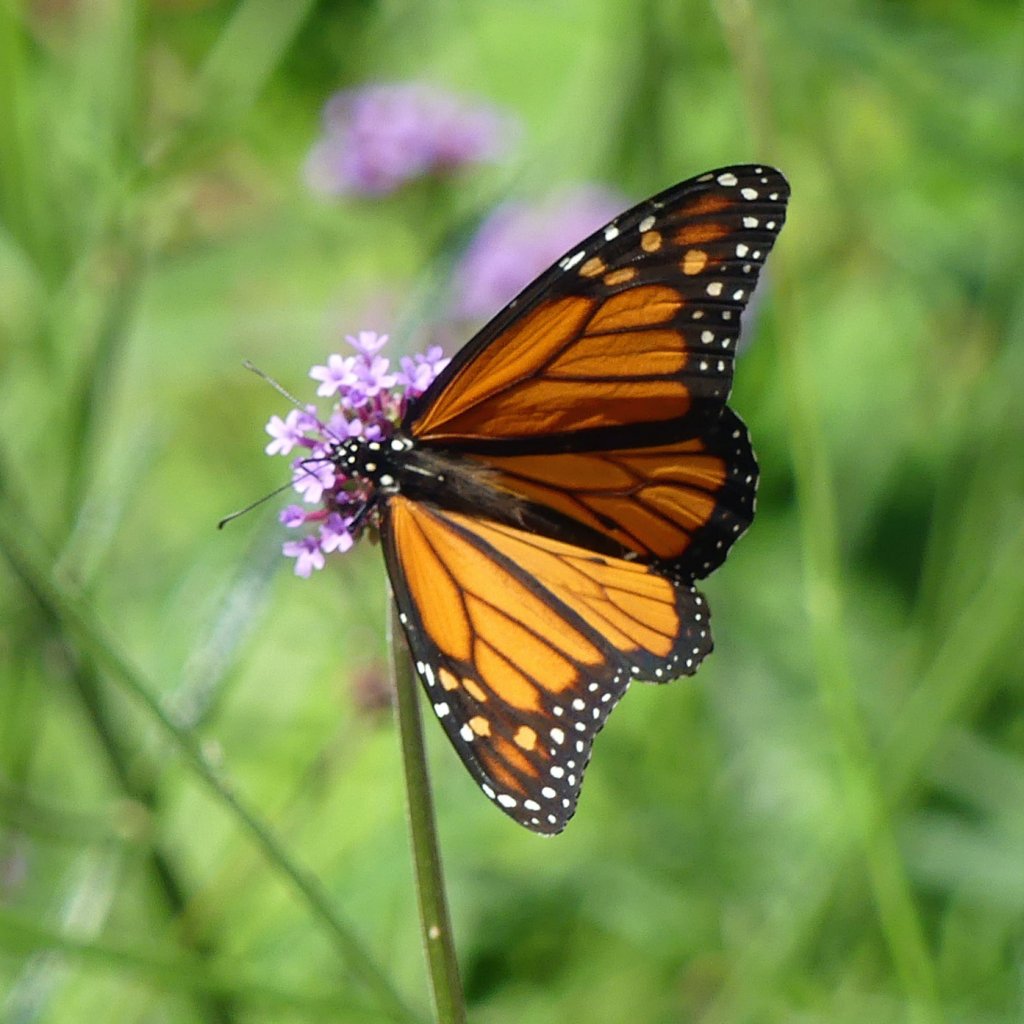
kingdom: Animalia
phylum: Arthropoda
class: Insecta
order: Lepidoptera
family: Nymphalidae
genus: Danaus
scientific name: Danaus plexippus
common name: Monarch
